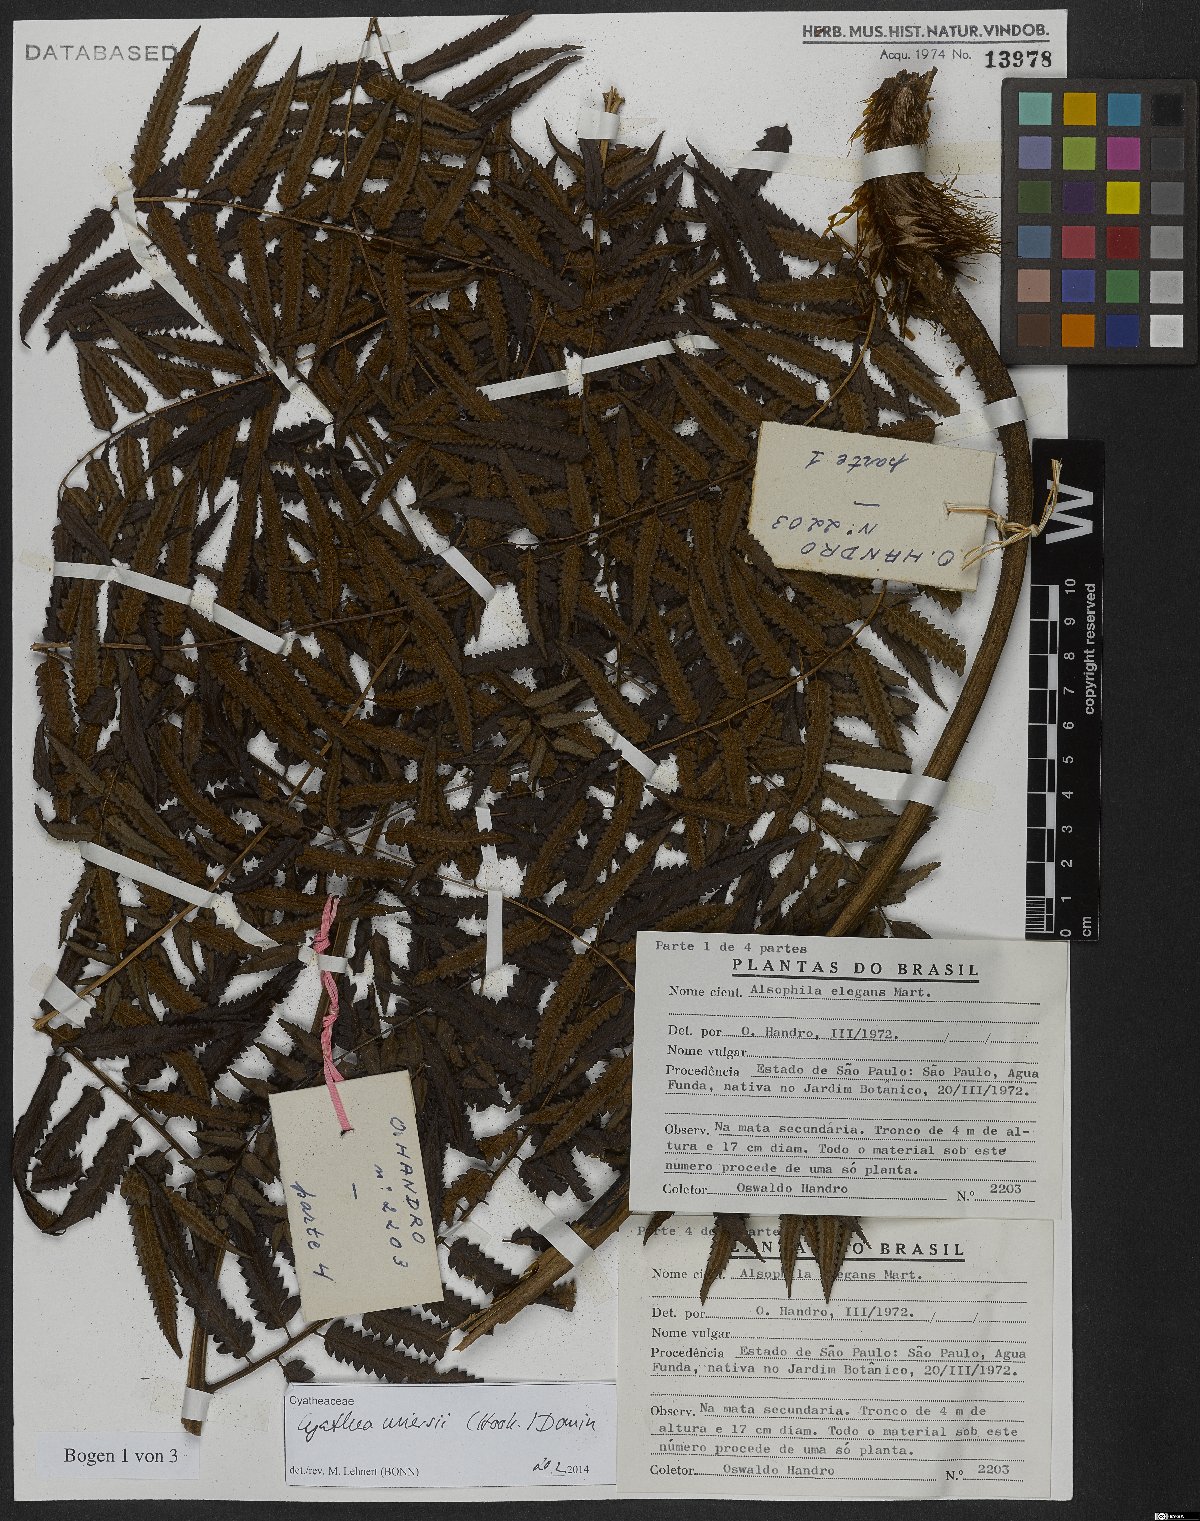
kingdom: Plantae
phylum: Tracheophyta
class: Polypodiopsida
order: Cyatheales
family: Cyatheaceae
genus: Cyathea
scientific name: Cyathea miersii
